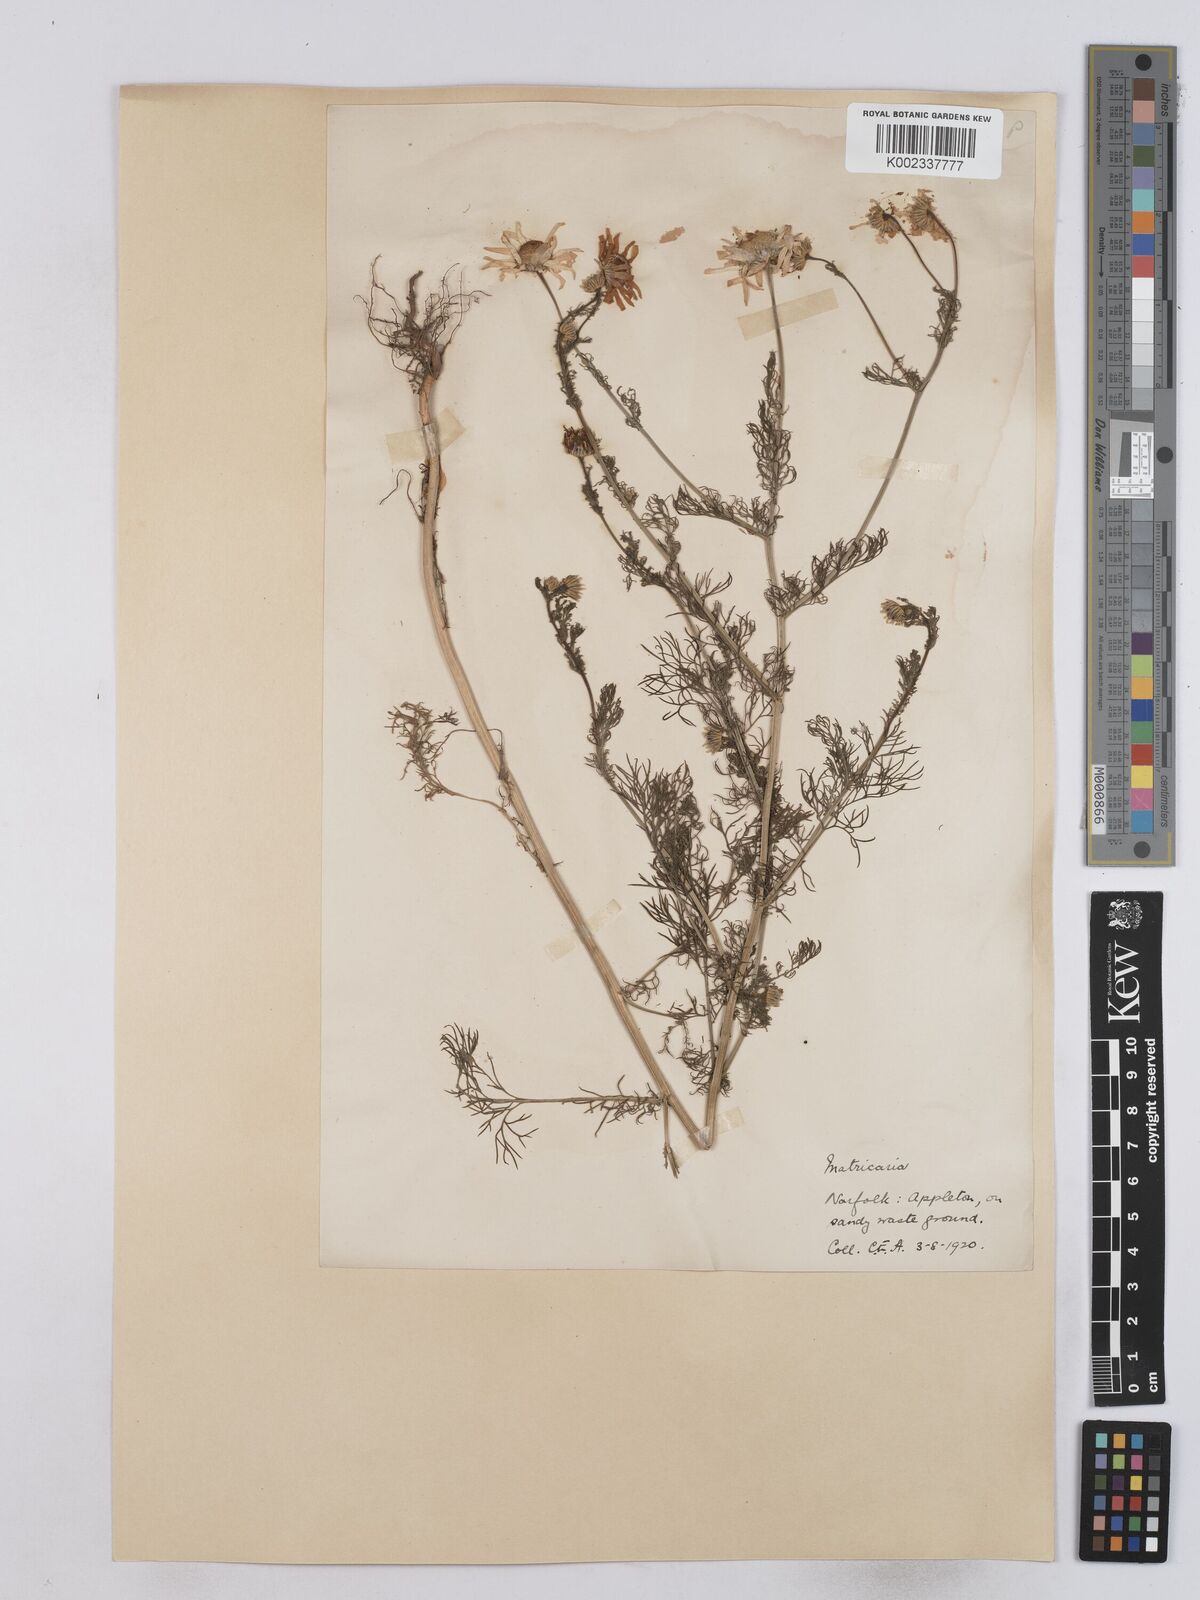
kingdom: Plantae
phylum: Tracheophyta
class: Magnoliopsida
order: Asterales
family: Asteraceae
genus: Matricaria
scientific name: Matricaria chamomilla
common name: Scented mayweed
